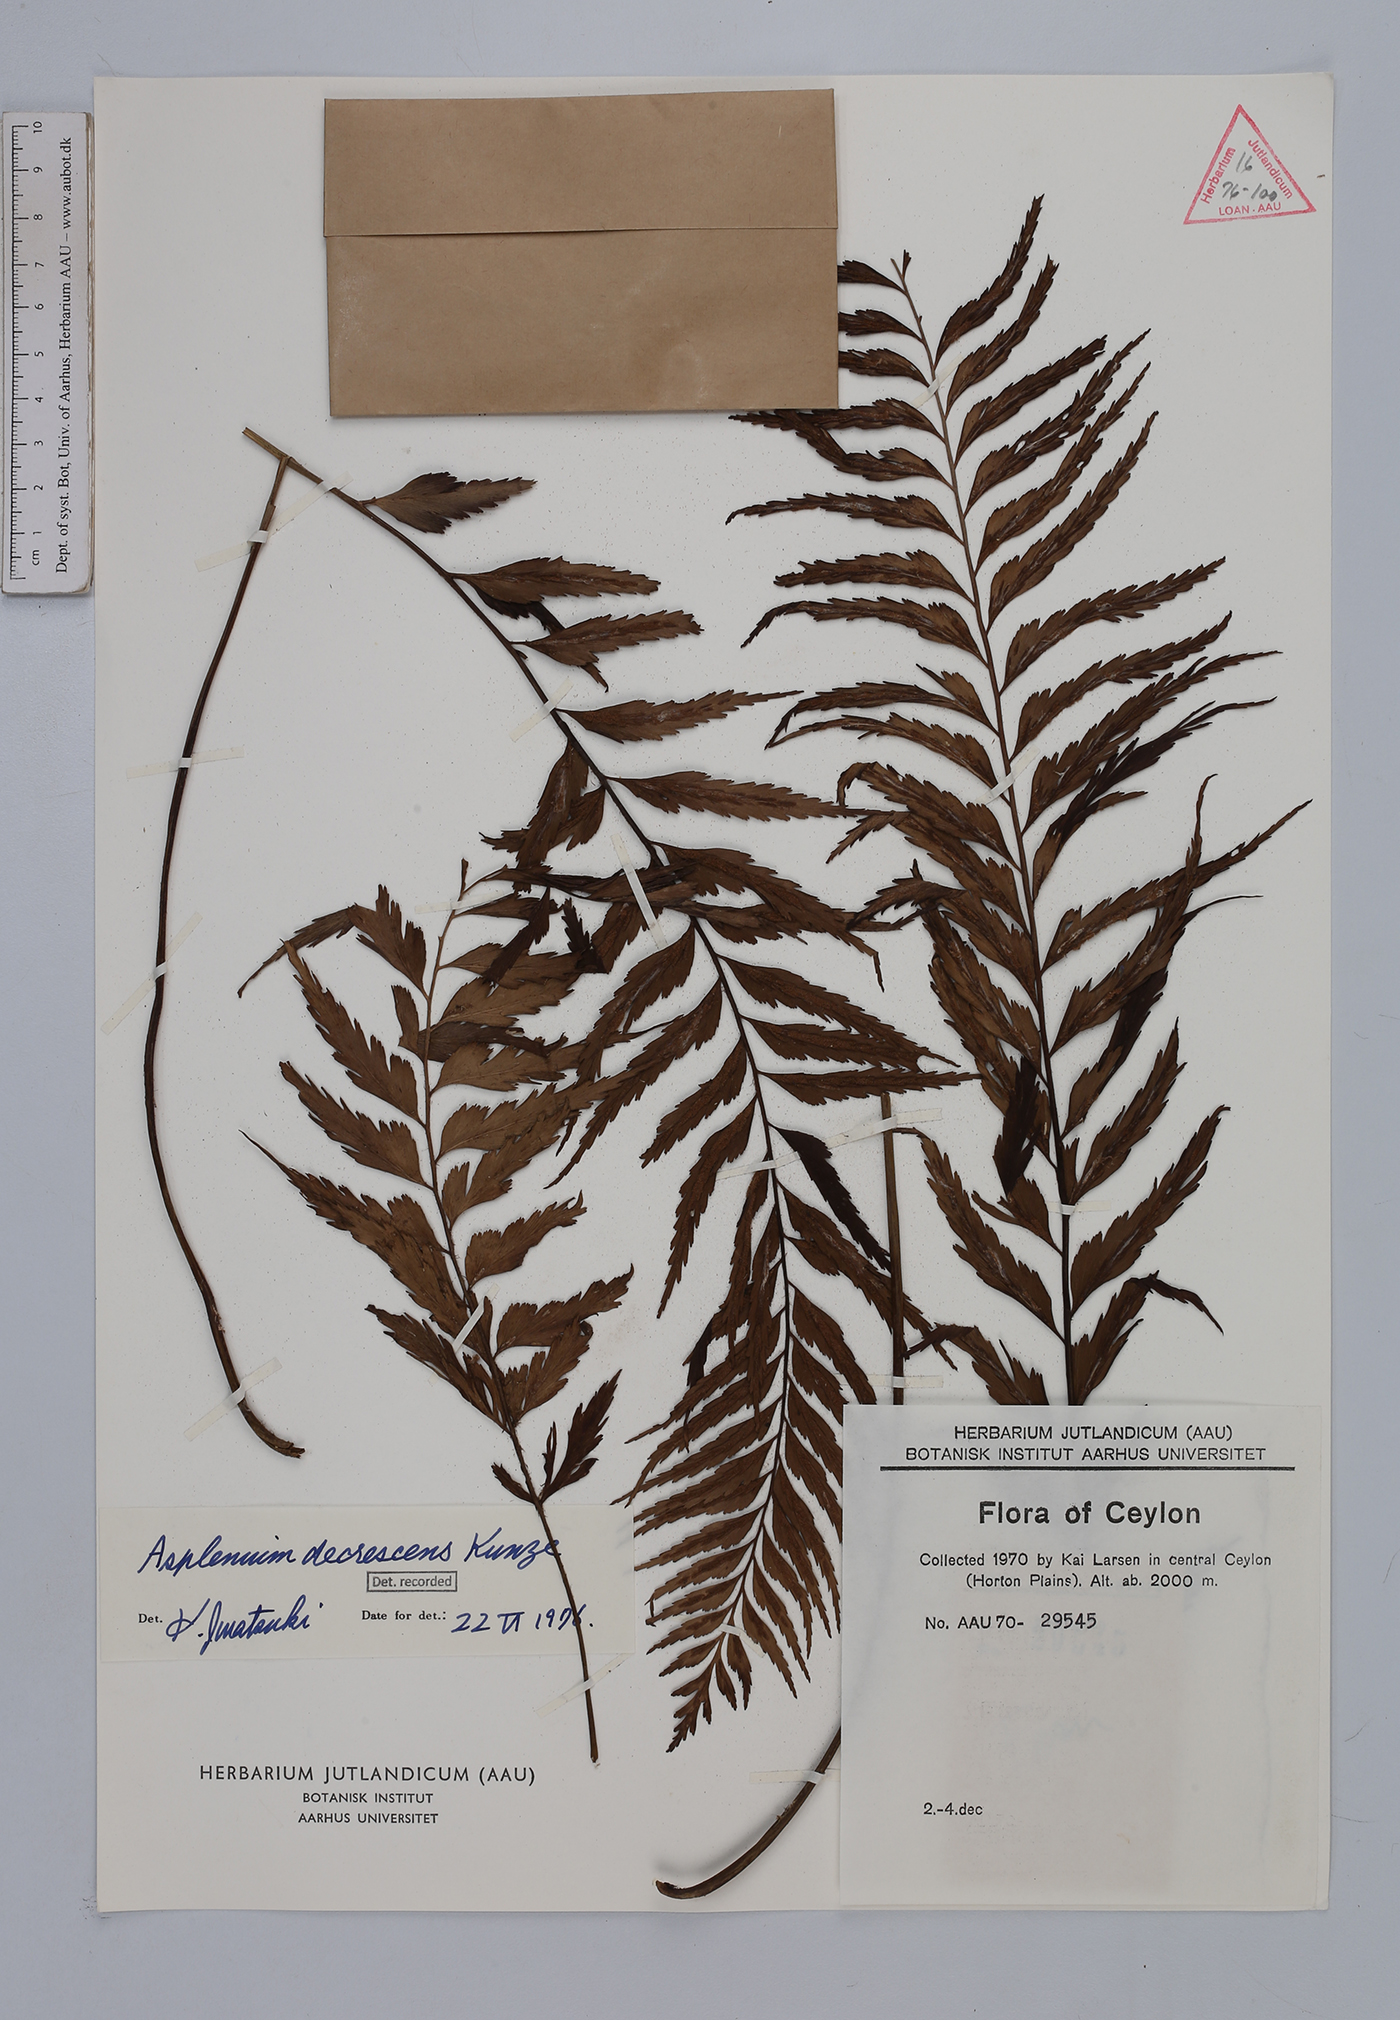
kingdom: Plantae
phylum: Tracheophyta
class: Polypodiopsida
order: Polypodiales
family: Aspleniaceae
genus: Asplenium
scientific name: Asplenium decrescens
